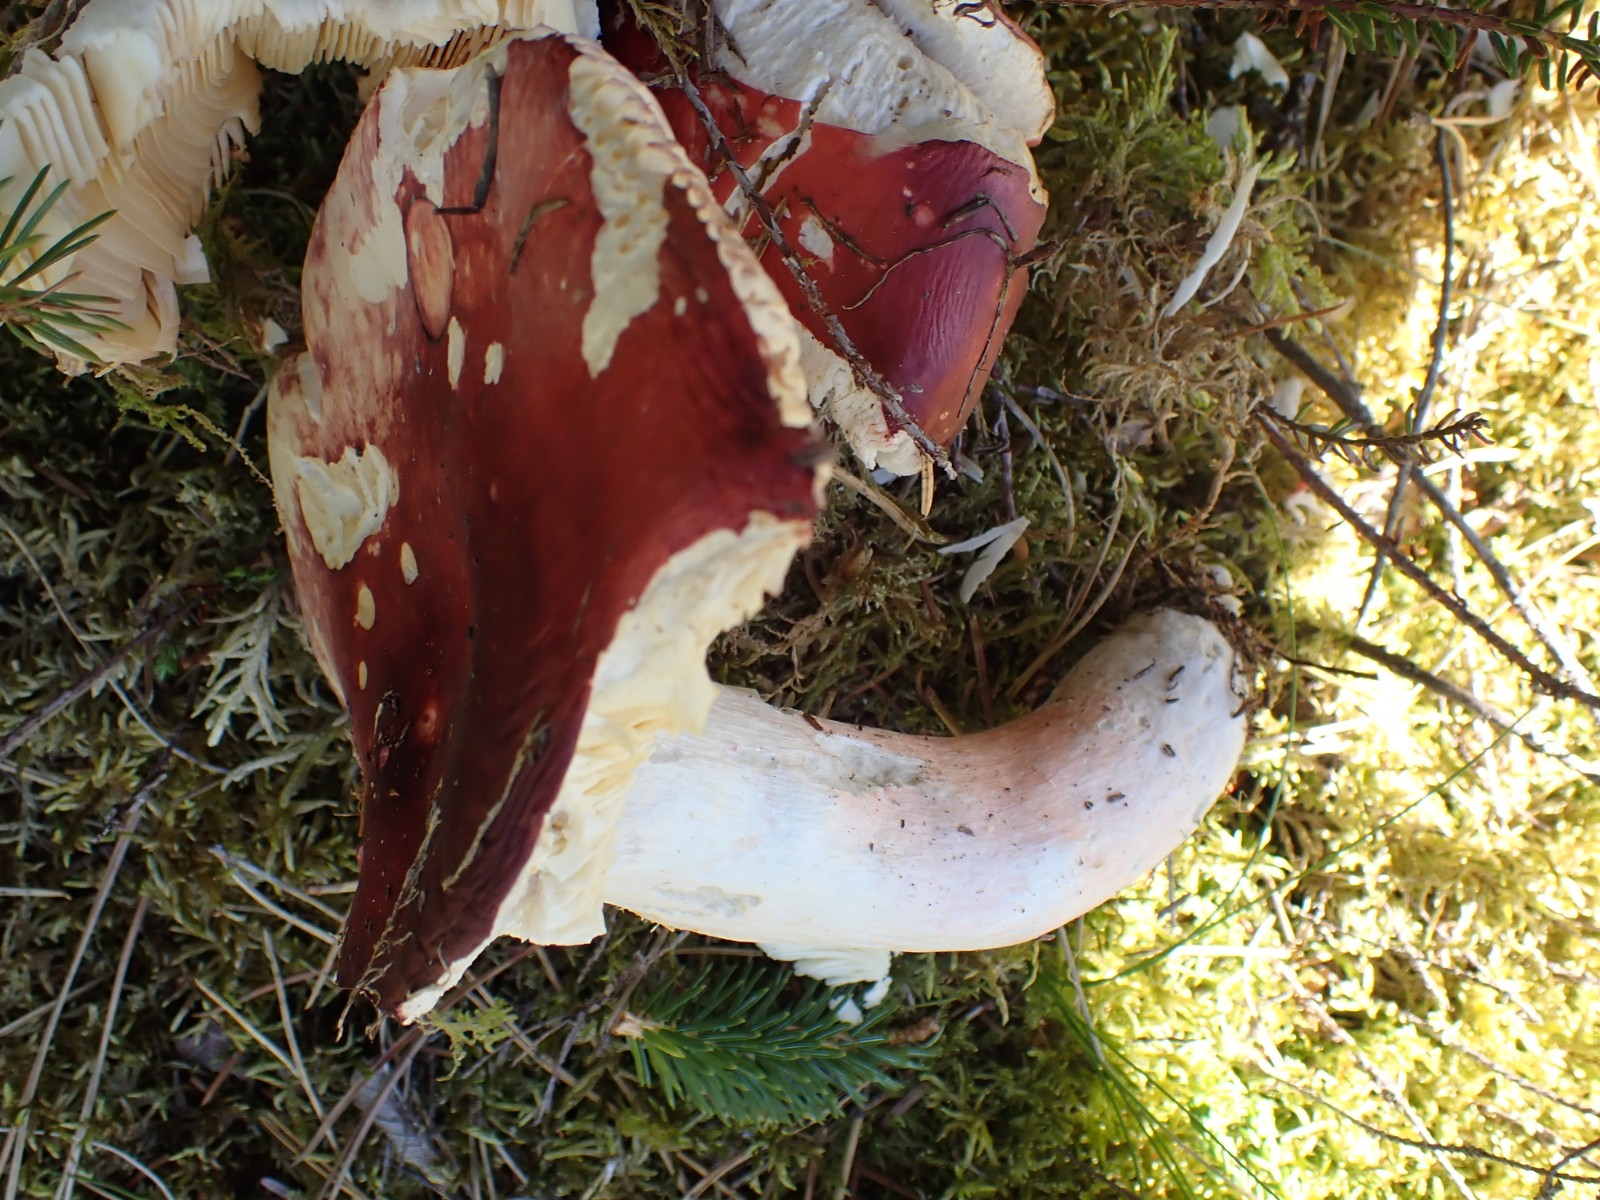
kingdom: Fungi
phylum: Basidiomycota
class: Agaricomycetes
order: Russulales
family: Russulaceae
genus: Russula
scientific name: Russula paludosa
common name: prægtig skørhat
